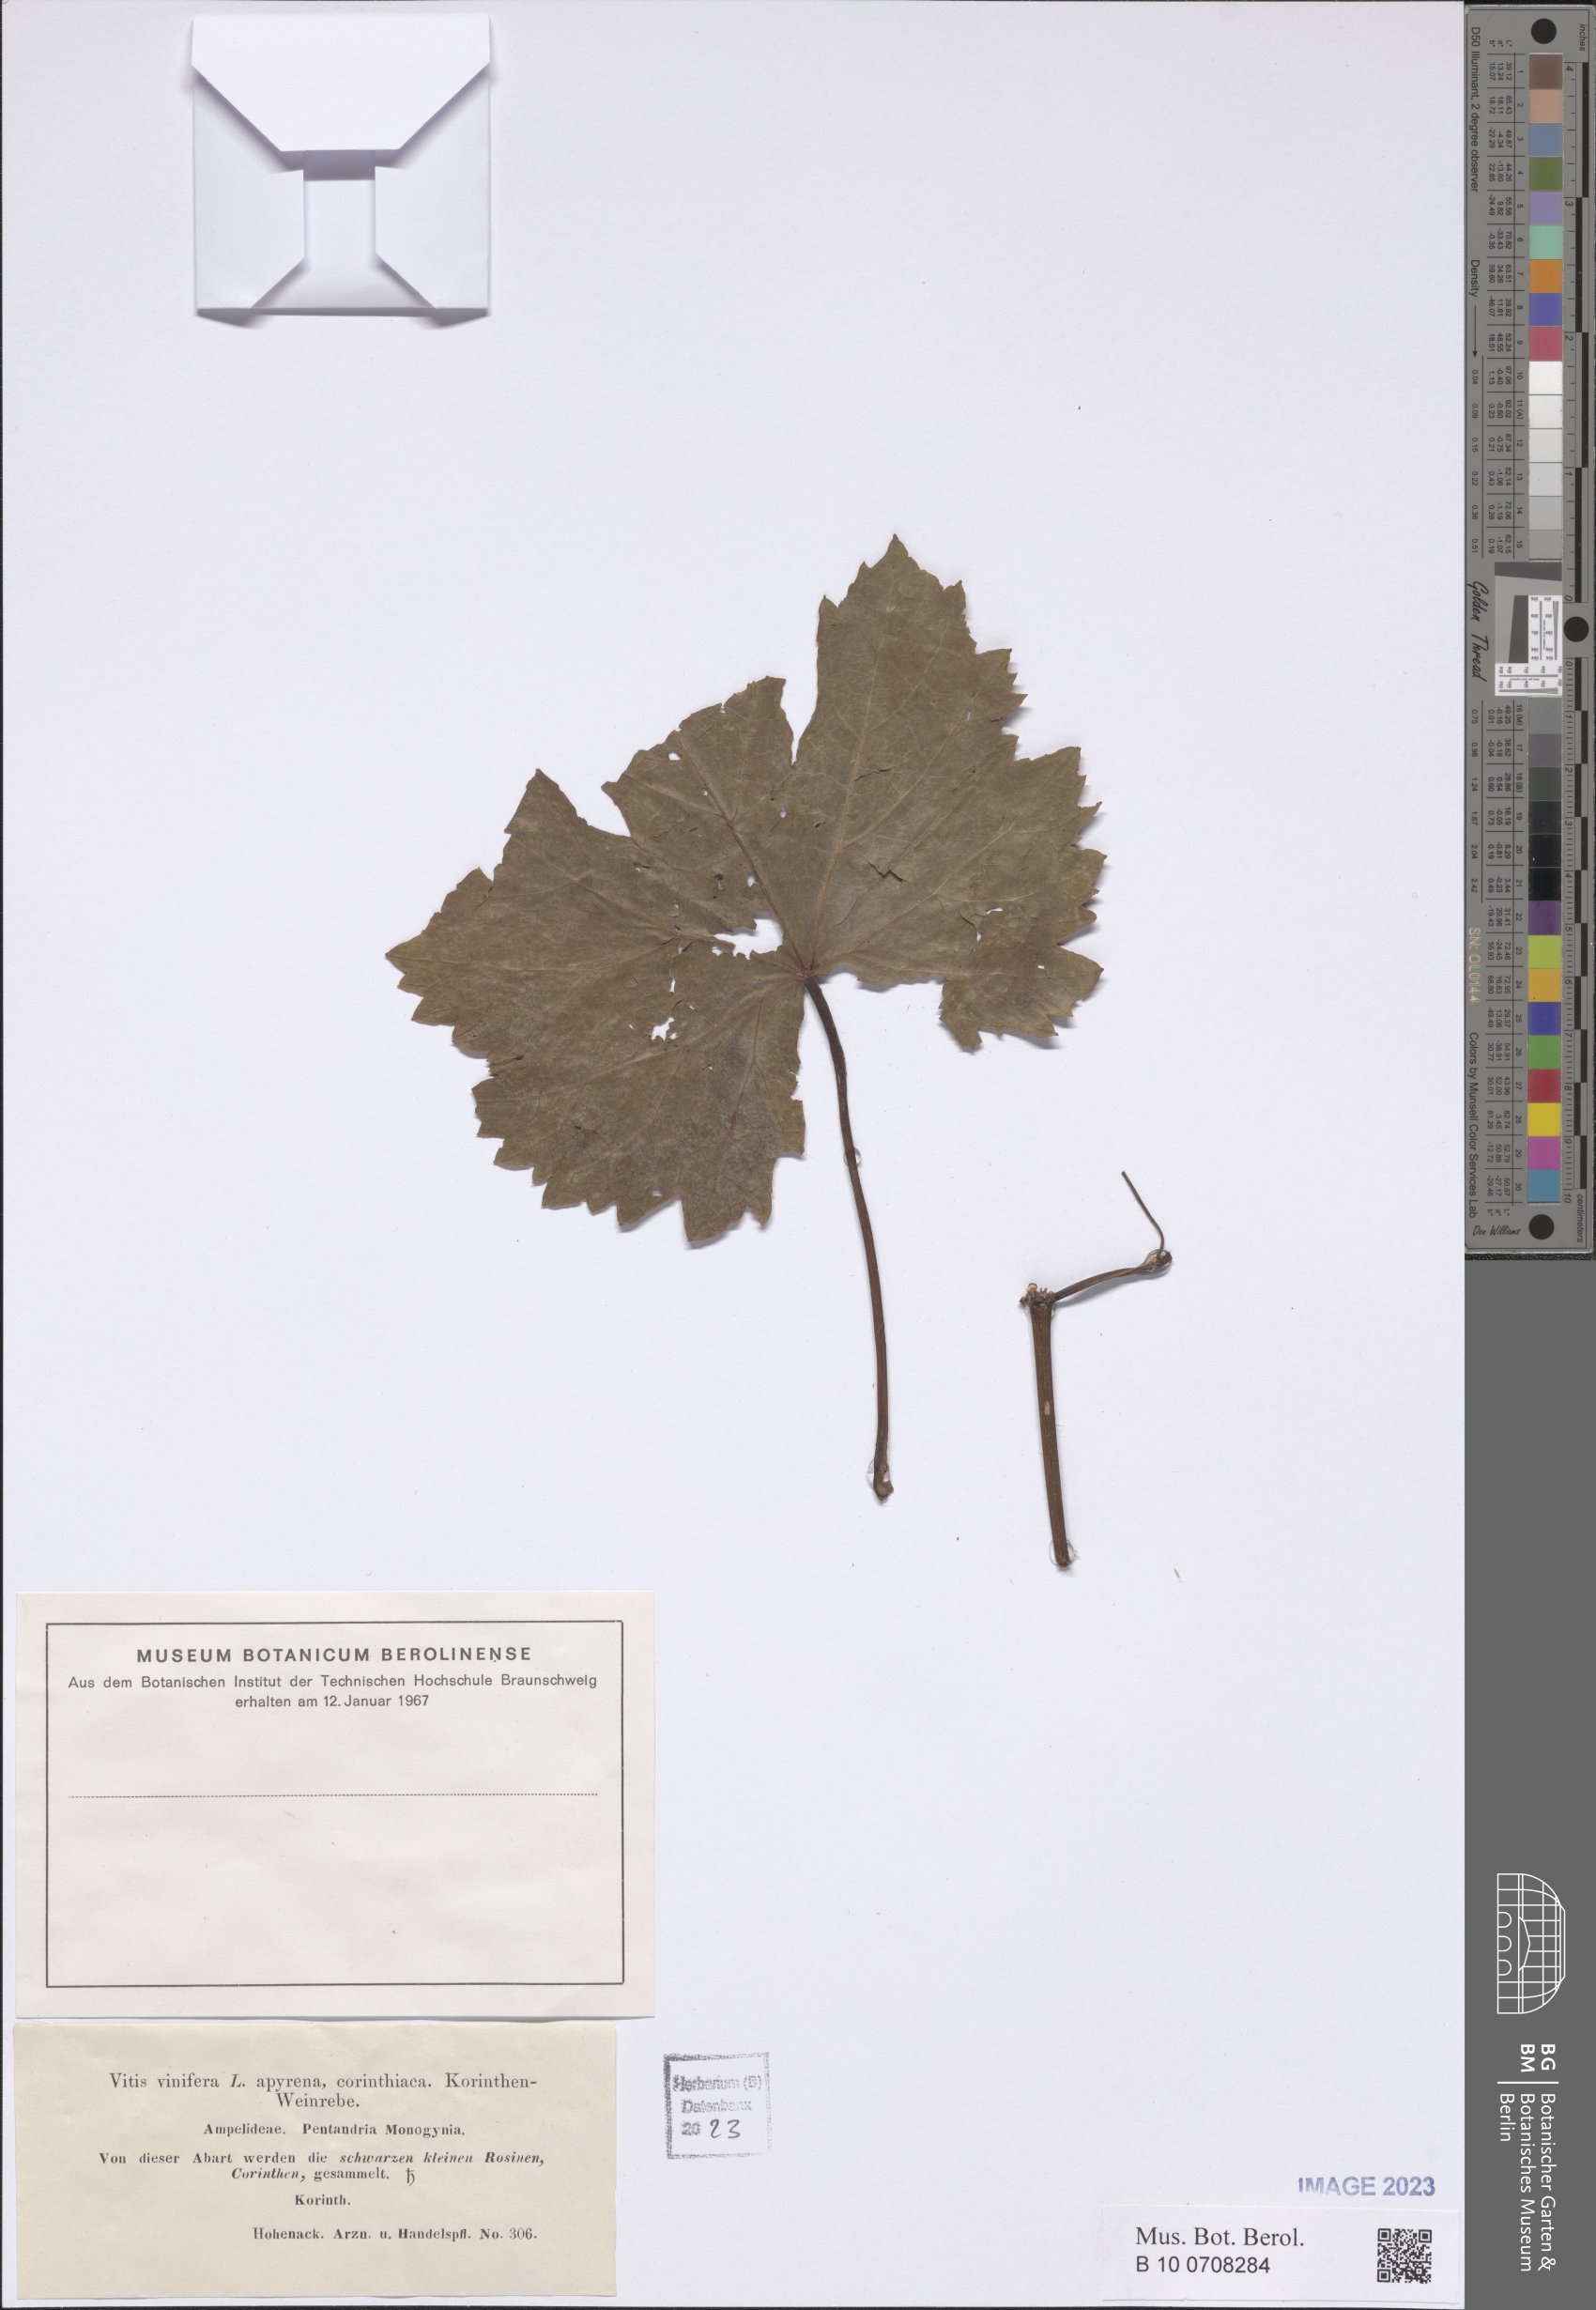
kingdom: Plantae
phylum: Tracheophyta
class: Magnoliopsida
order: Vitales
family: Vitaceae
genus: Vitis
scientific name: Vitis vinifera
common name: Grape-vine
